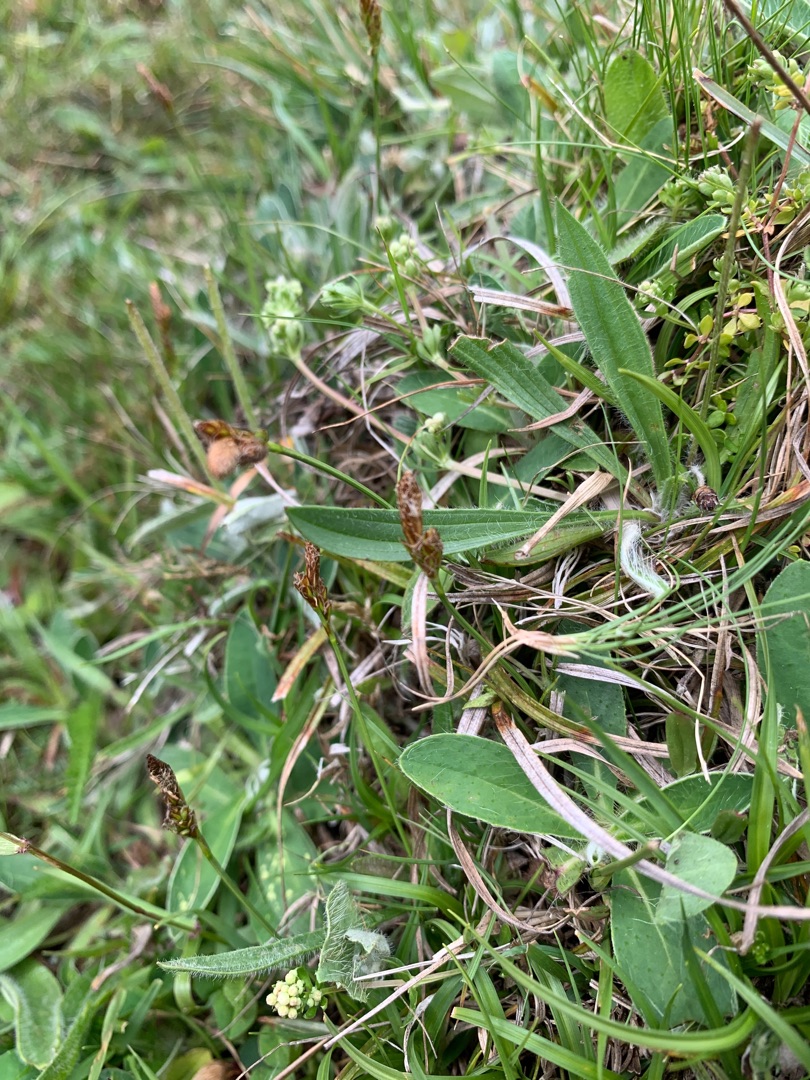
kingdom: Plantae
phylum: Tracheophyta
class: Liliopsida
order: Poales
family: Cyperaceae
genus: Carex
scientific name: Carex caryophyllea
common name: Vår-star
